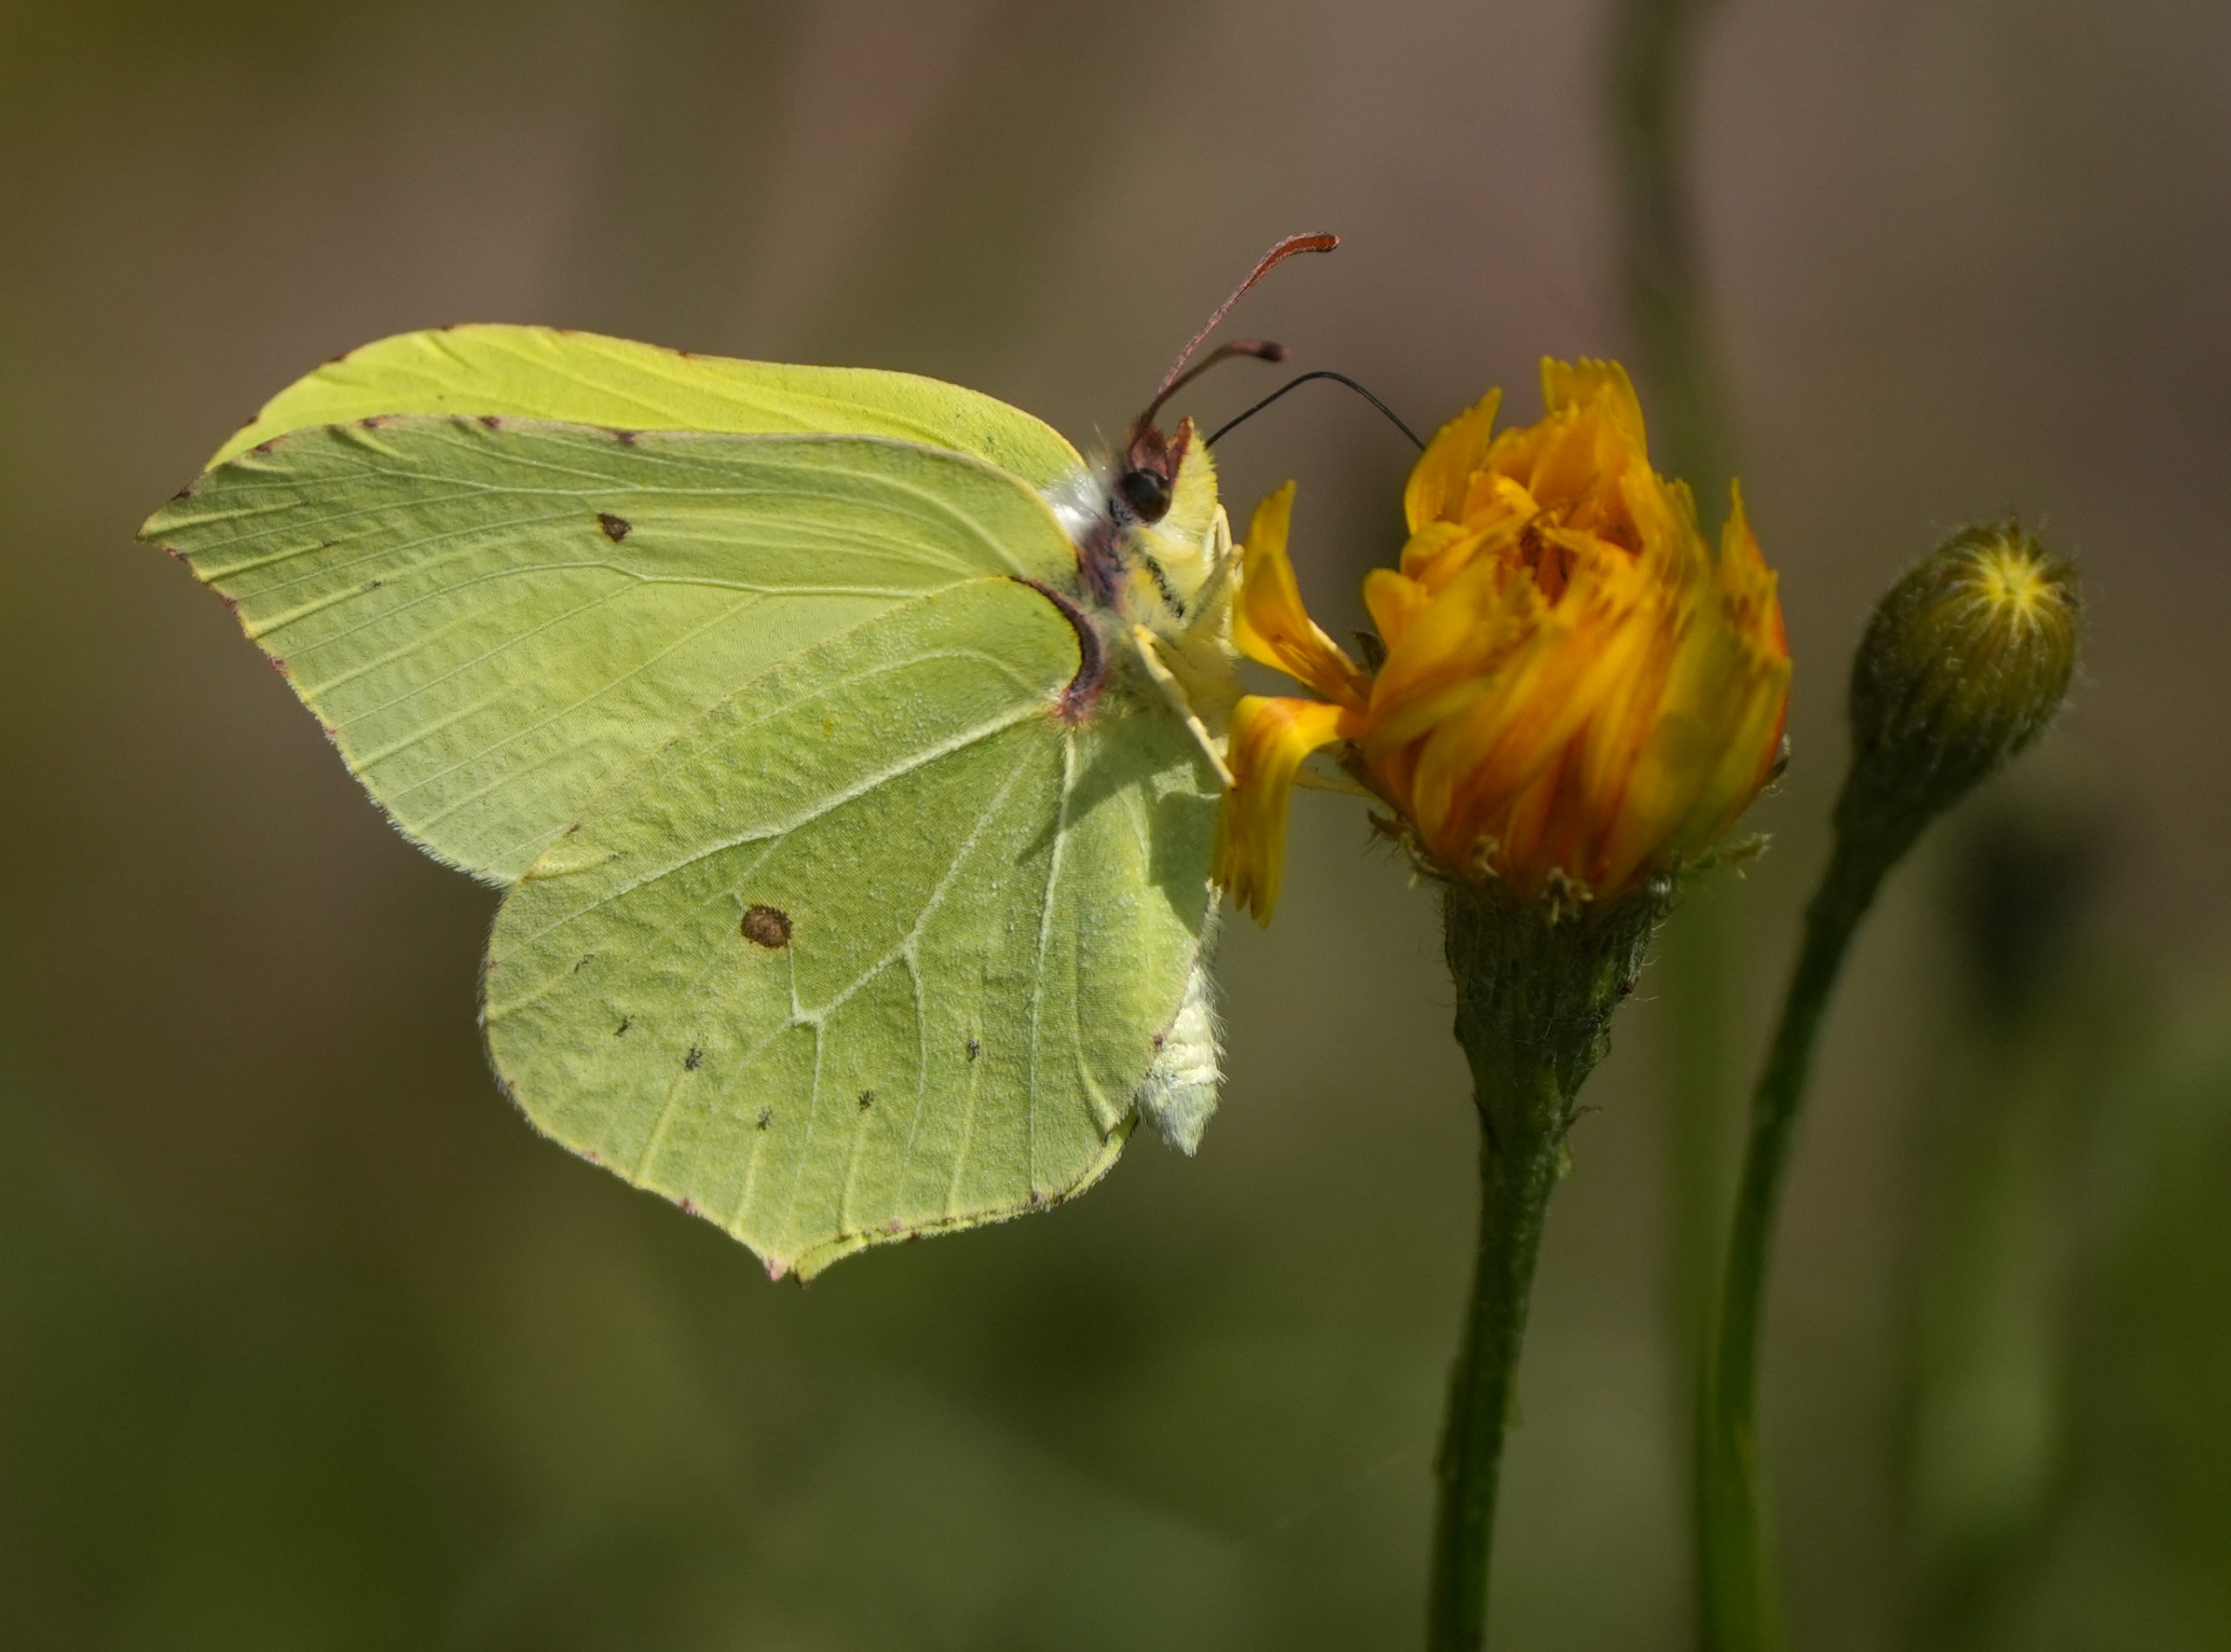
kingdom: Animalia
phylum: Arthropoda
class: Insecta
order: Lepidoptera
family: Pieridae
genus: Gonepteryx
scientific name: Gonepteryx rhamni
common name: Citronsommerfugl
